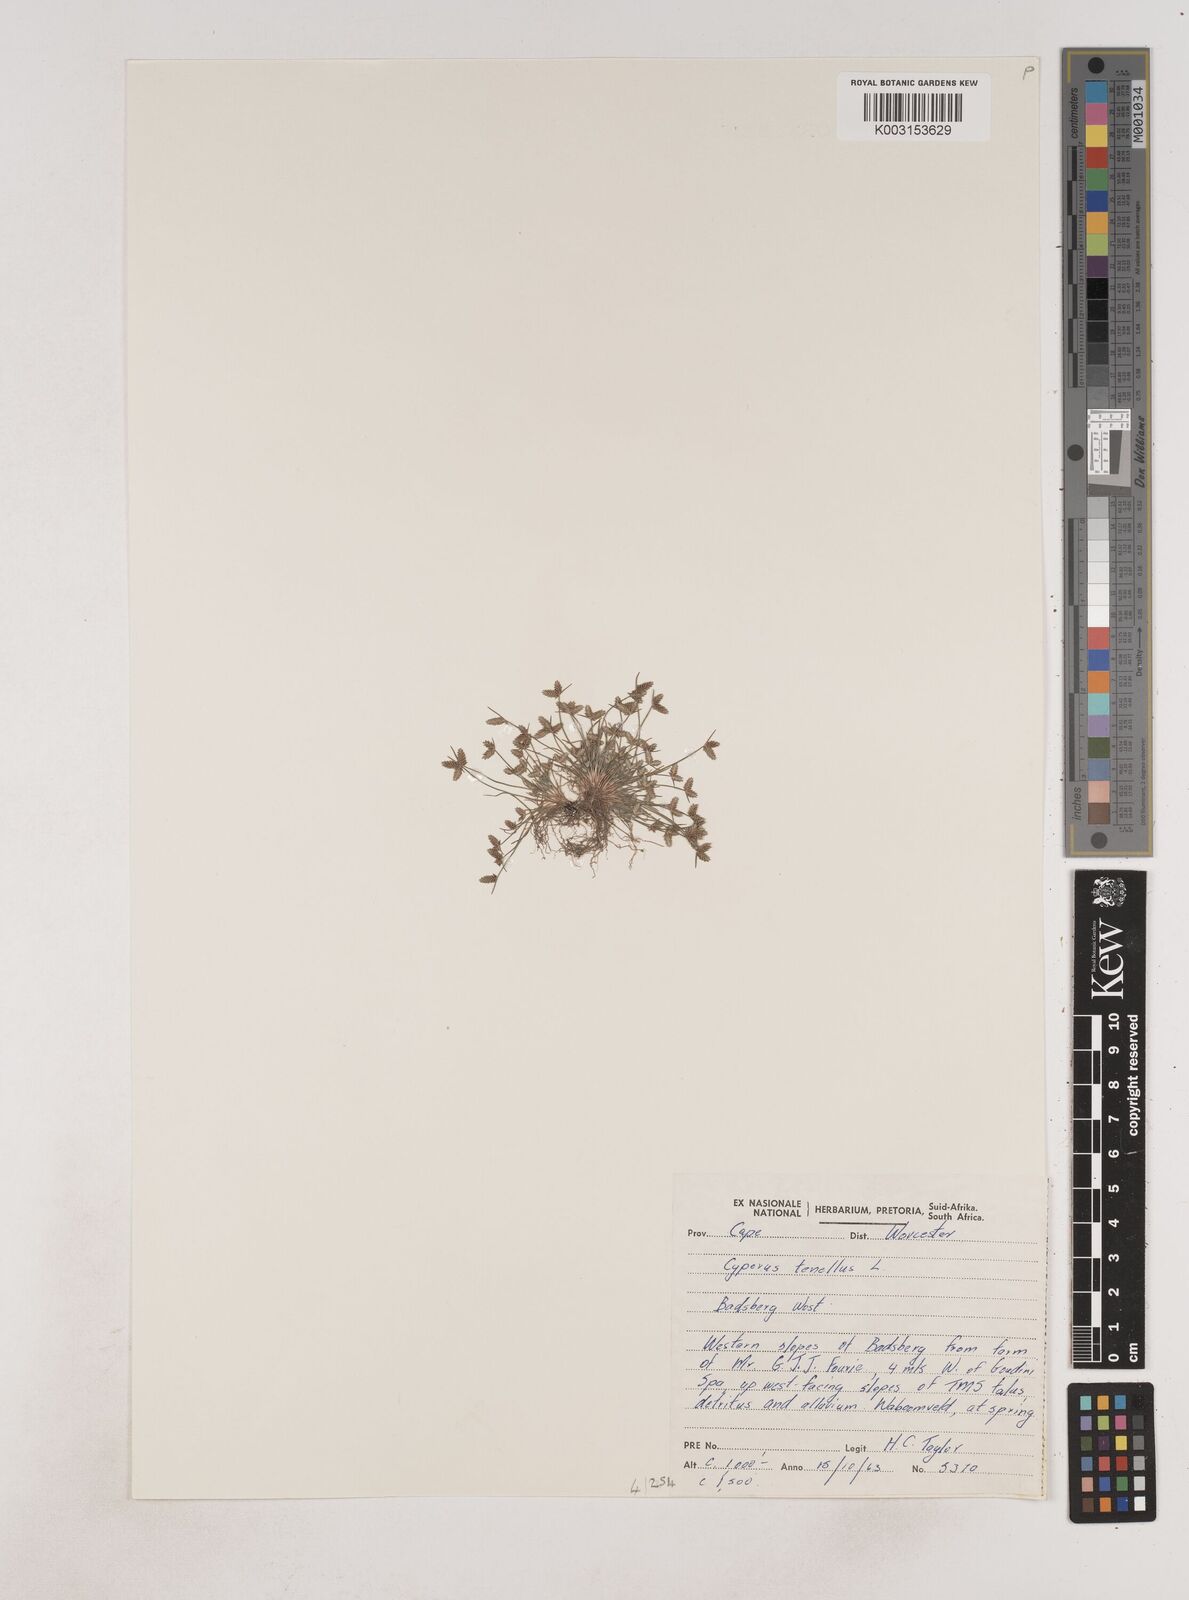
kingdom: Plantae
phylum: Tracheophyta
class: Liliopsida
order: Poales
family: Cyperaceae
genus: Isolepis
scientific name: Isolepis levynsiana
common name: Sedge
